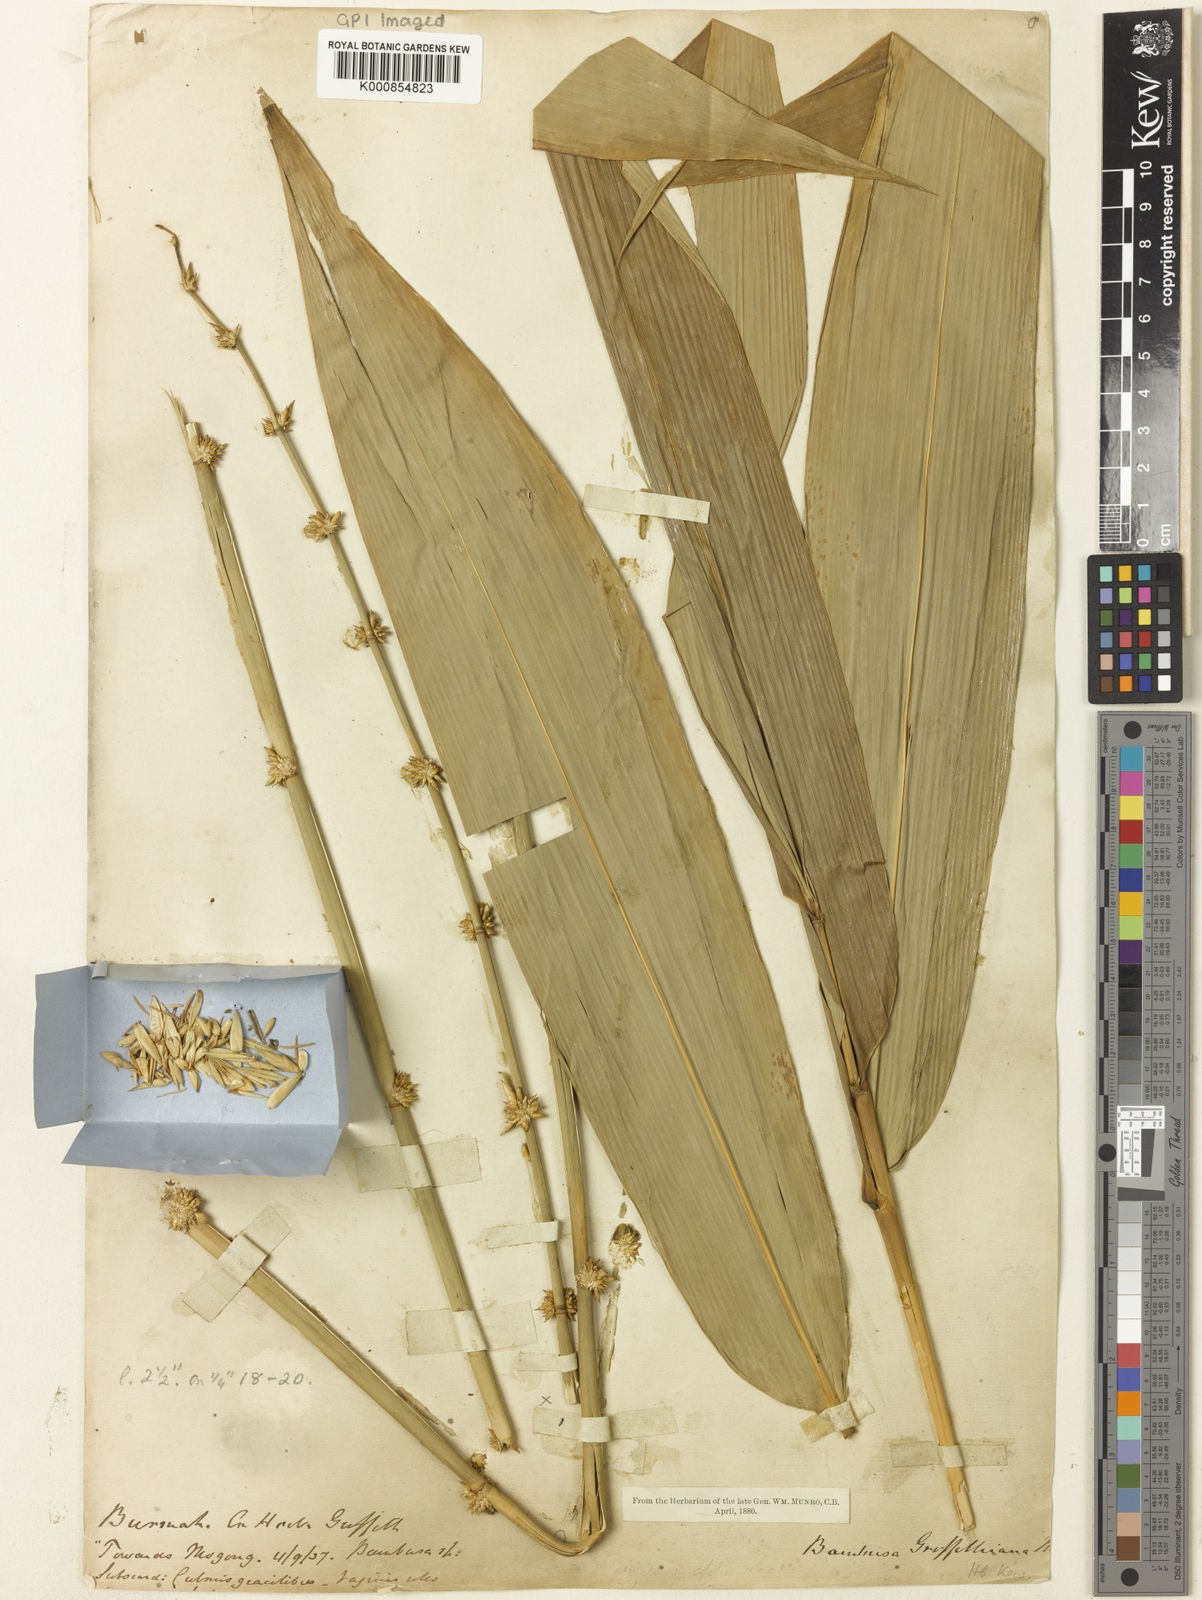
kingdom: Plantae
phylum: Tracheophyta
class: Liliopsida
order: Poales
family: Poaceae
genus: Bambusa
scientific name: Bambusa griffithiana
